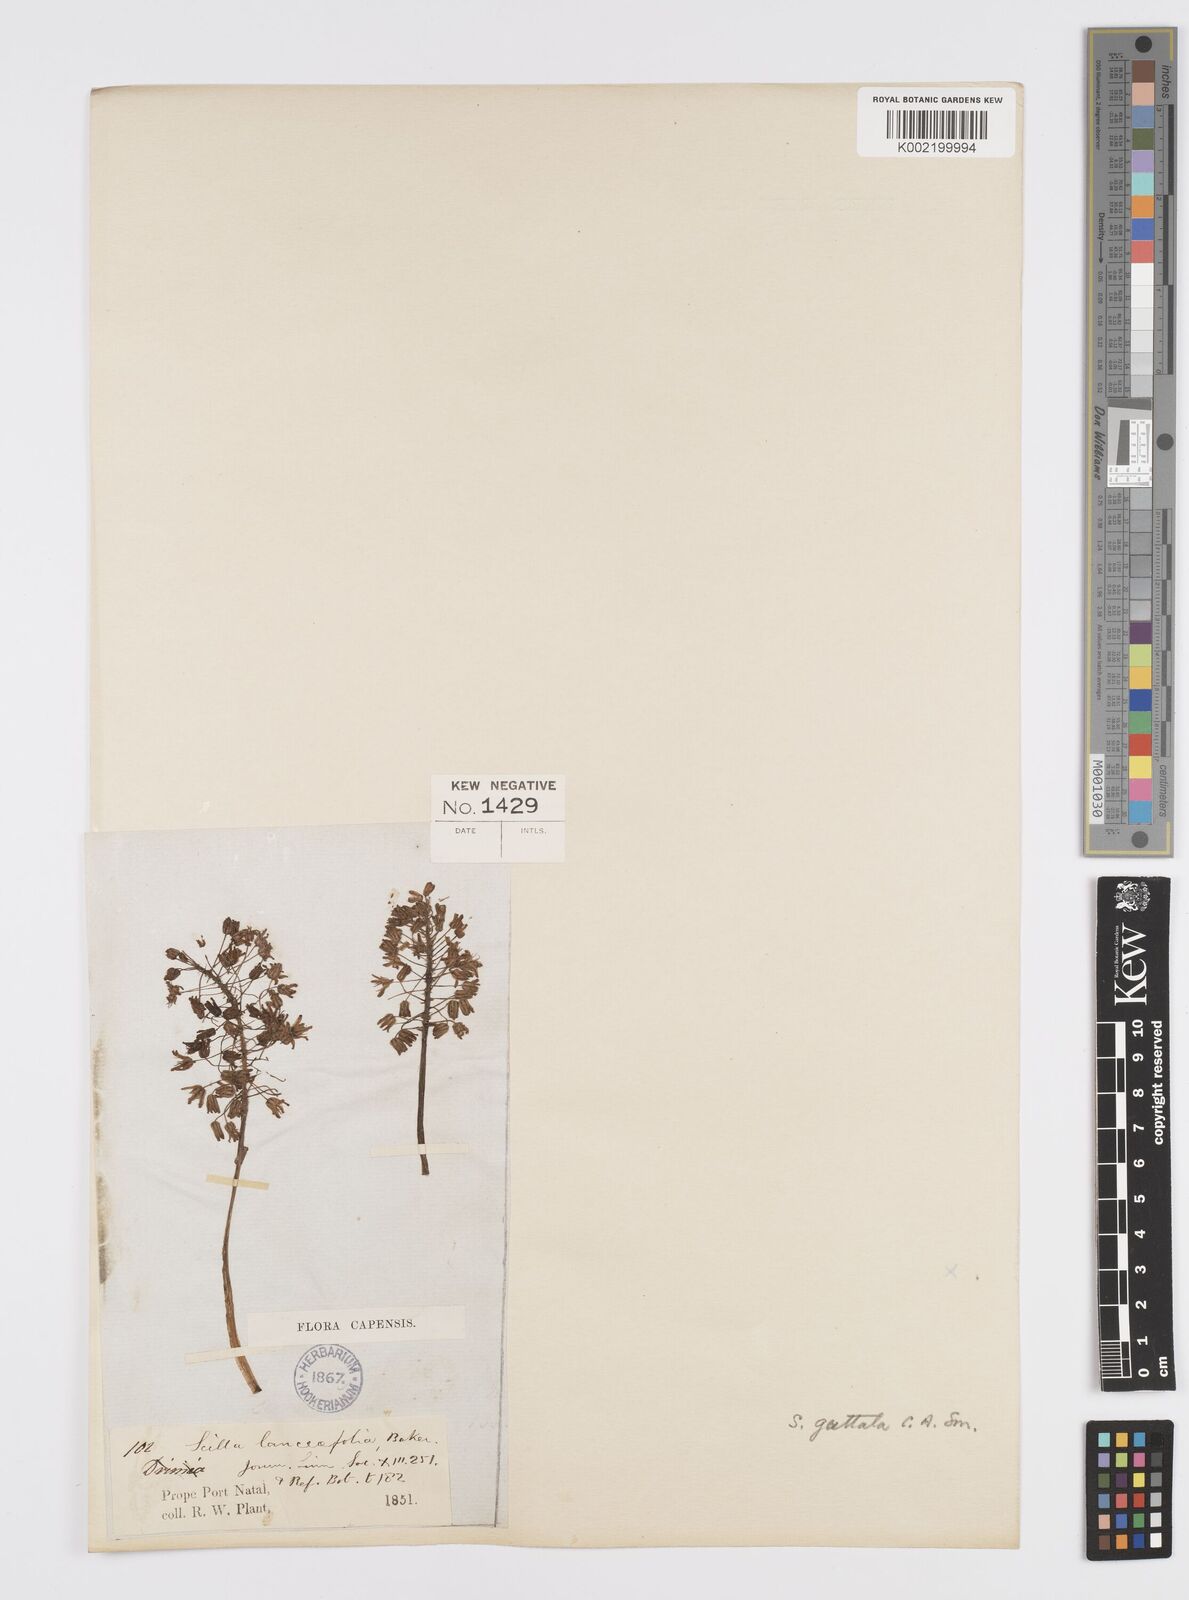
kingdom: Plantae
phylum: Tracheophyta
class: Liliopsida
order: Asparagales
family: Asparagaceae
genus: Ledebouria
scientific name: Ledebouria ovatifolia
